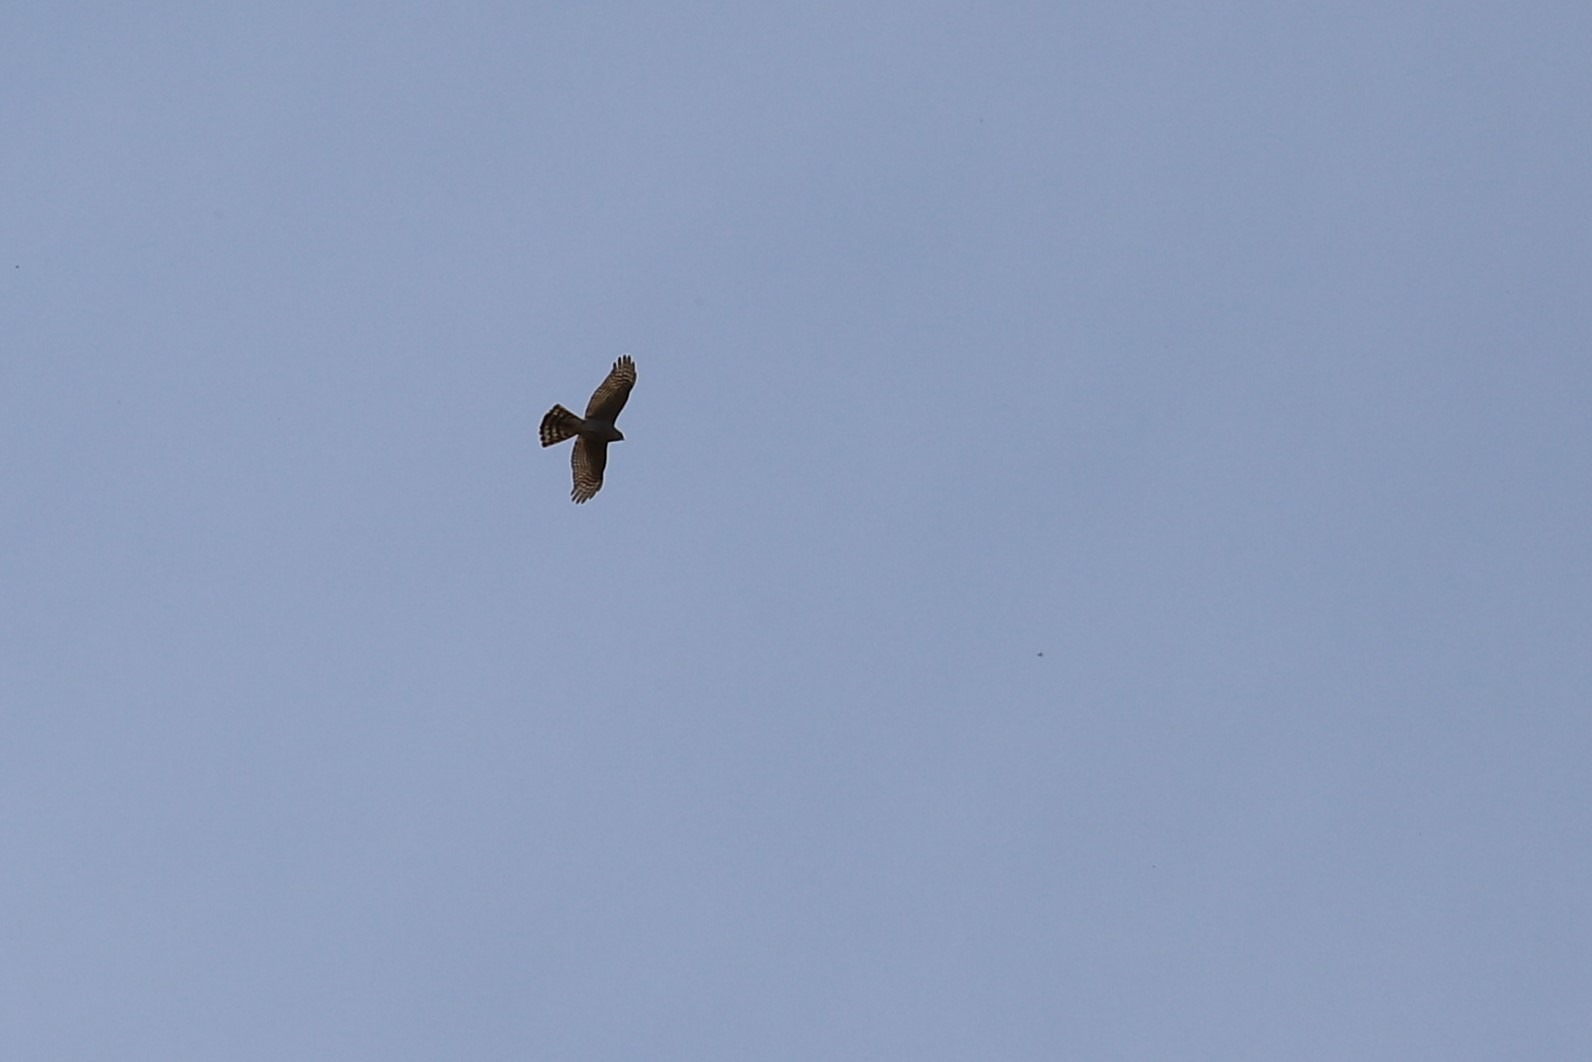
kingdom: Animalia
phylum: Chordata
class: Aves
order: Accipitriformes
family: Accipitridae
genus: Accipiter
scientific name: Accipiter nisus
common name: Spurvehøg
